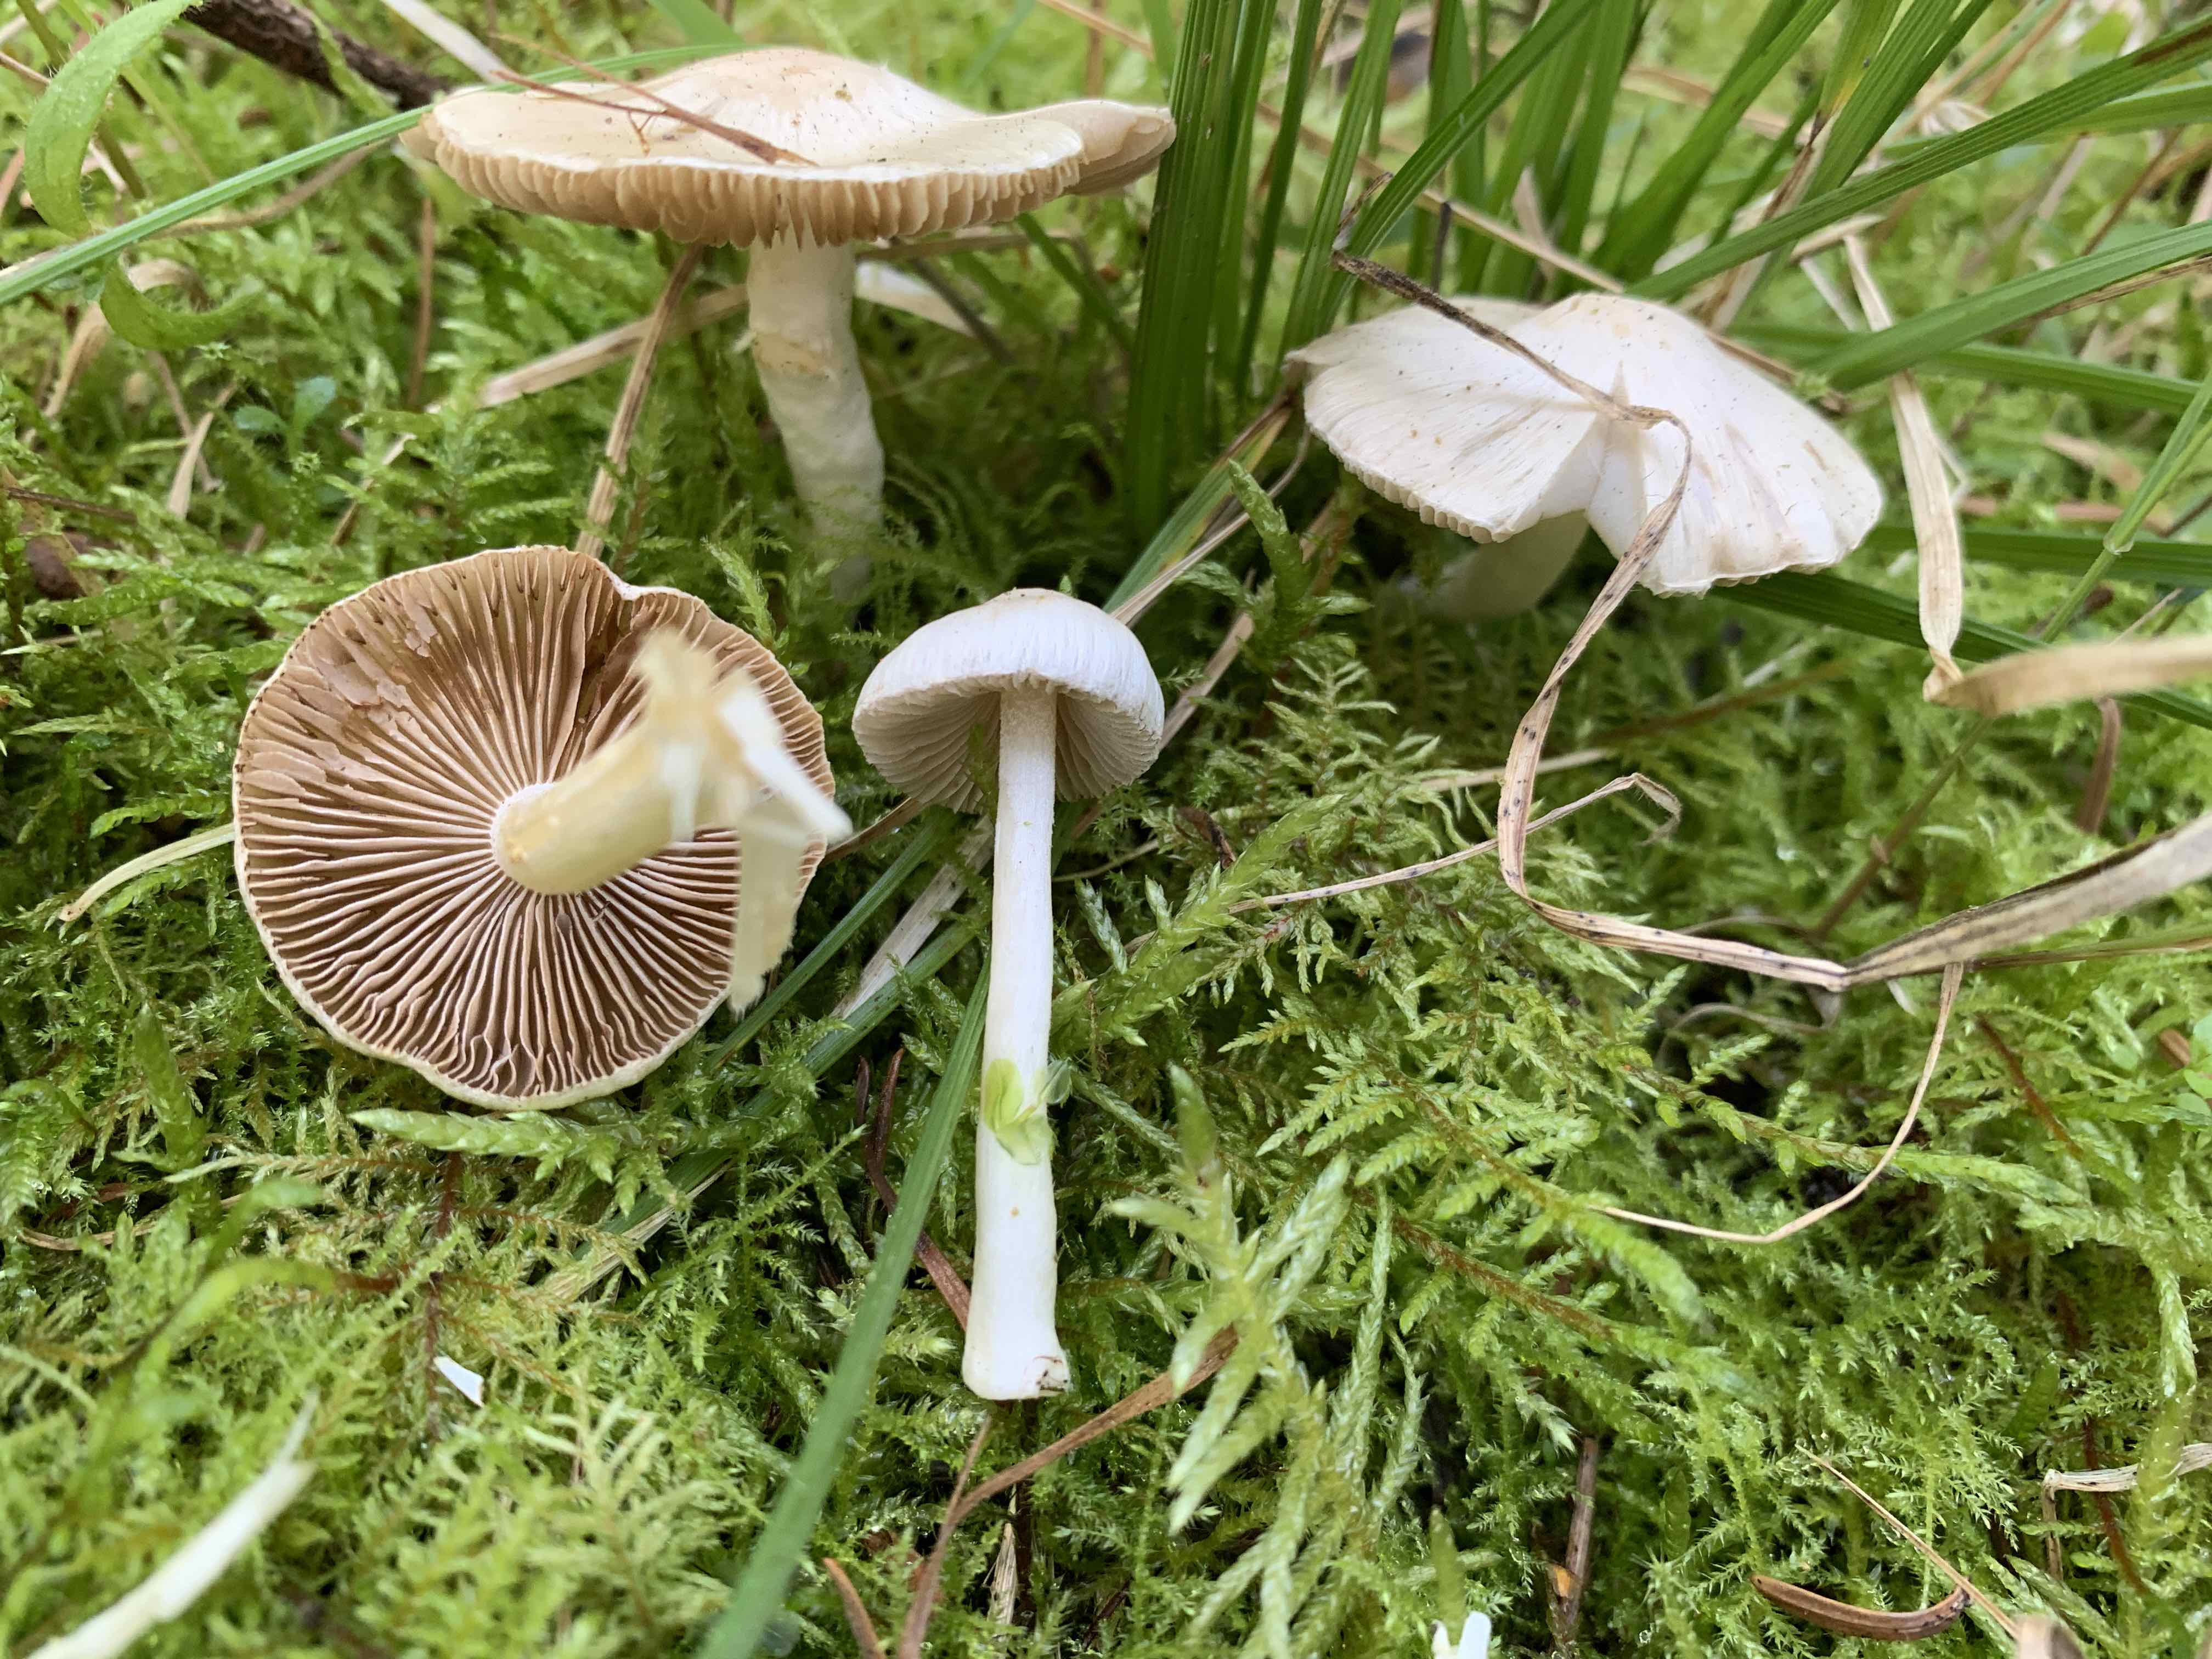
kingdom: Fungi
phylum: Basidiomycota
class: Agaricomycetes
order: Agaricales
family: Inocybaceae
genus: Inocybe
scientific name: Inocybe
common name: almindelig trævlhat
